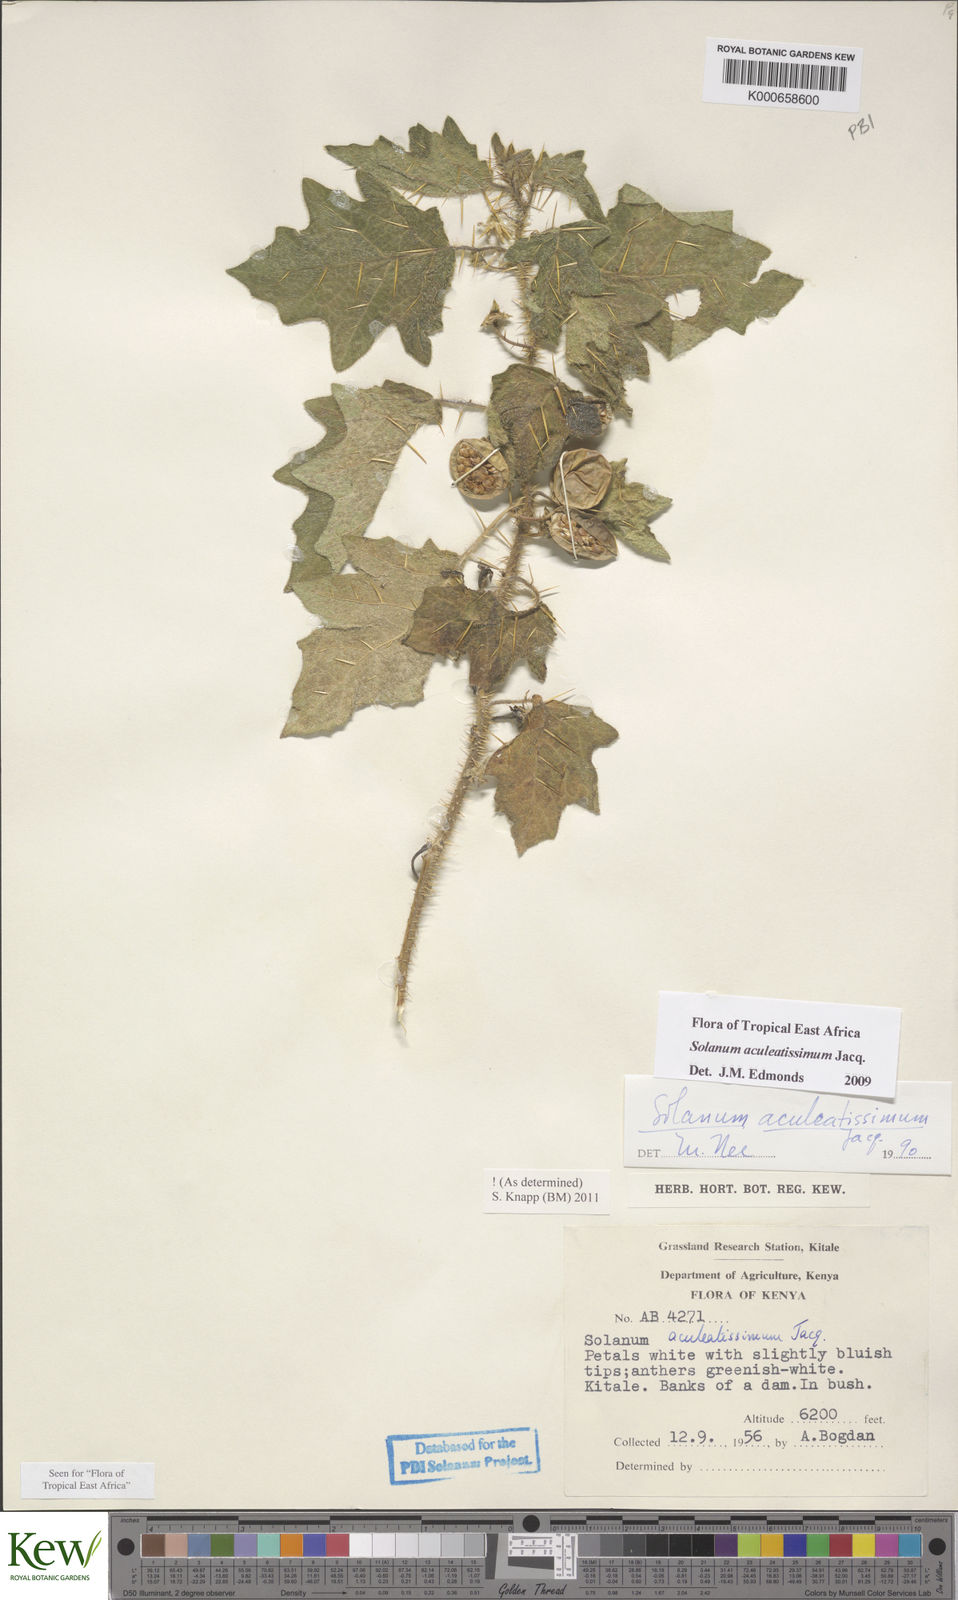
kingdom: Plantae
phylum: Tracheophyta
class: Magnoliopsida
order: Solanales
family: Solanaceae
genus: Solanum
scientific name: Solanum aculeatissimum
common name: Dutch eggplant
